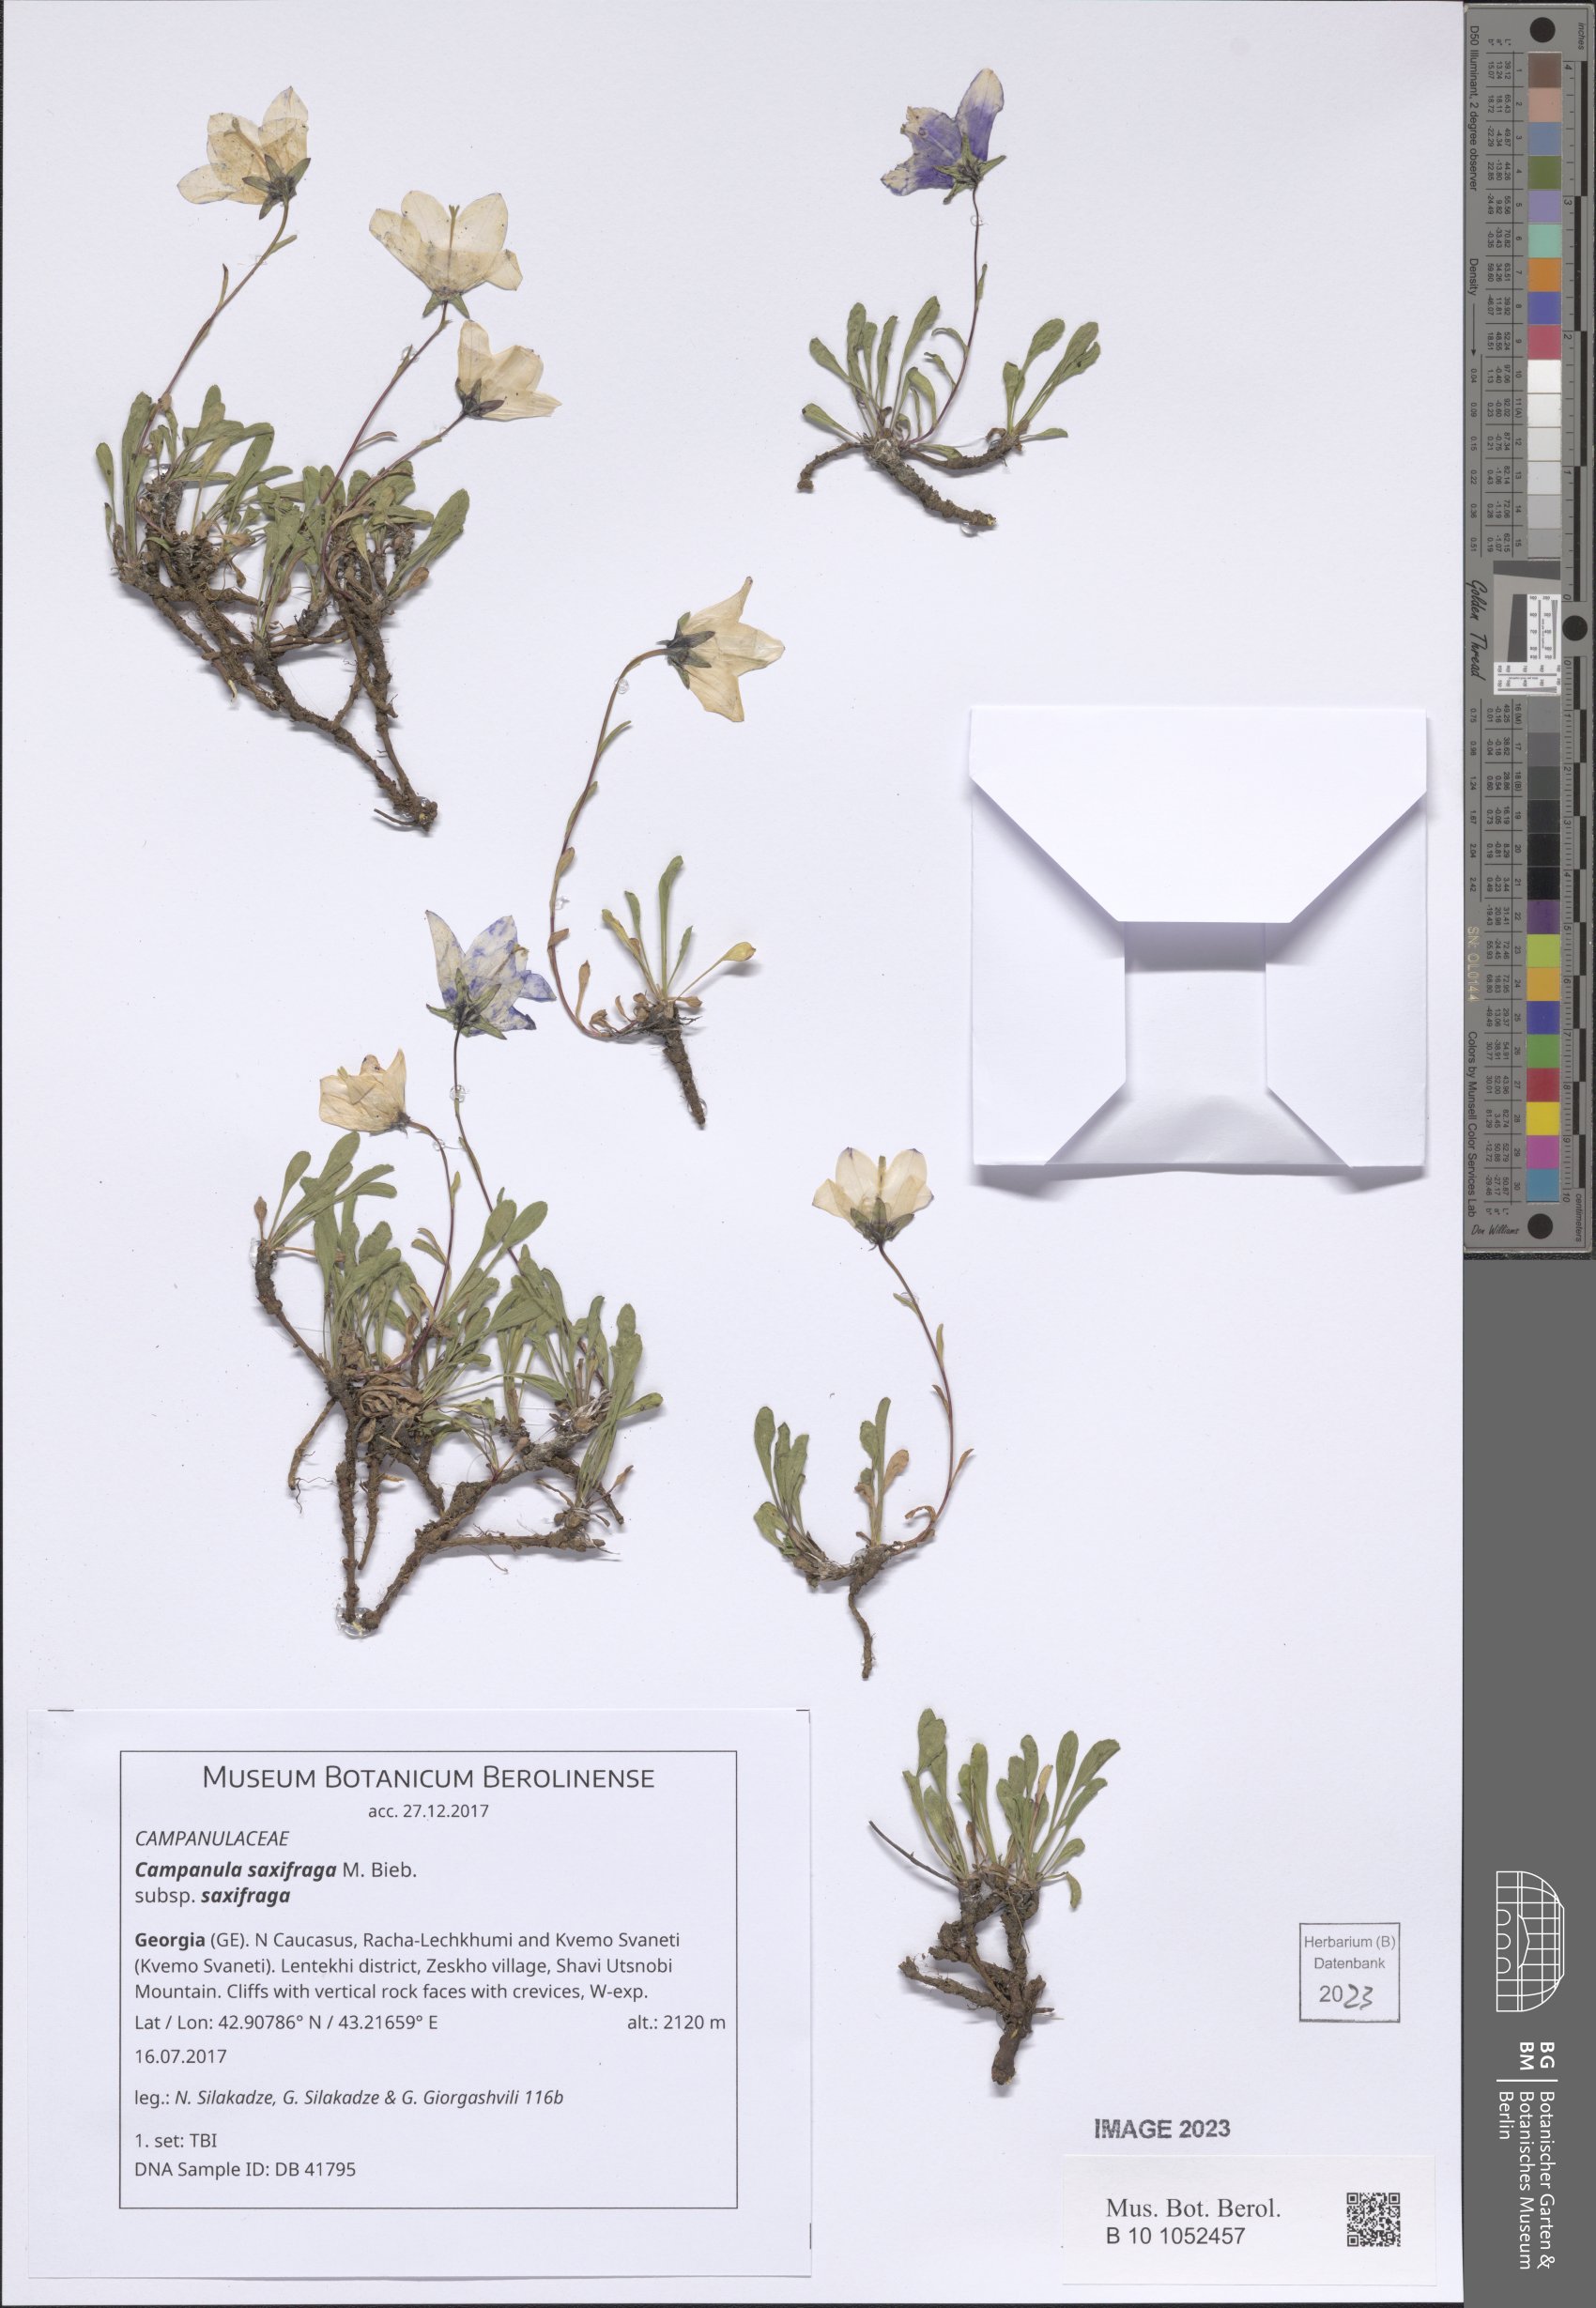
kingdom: Plantae
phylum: Tracheophyta
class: Magnoliopsida
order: Asterales
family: Campanulaceae
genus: Campanula
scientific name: Campanula saxifraga
